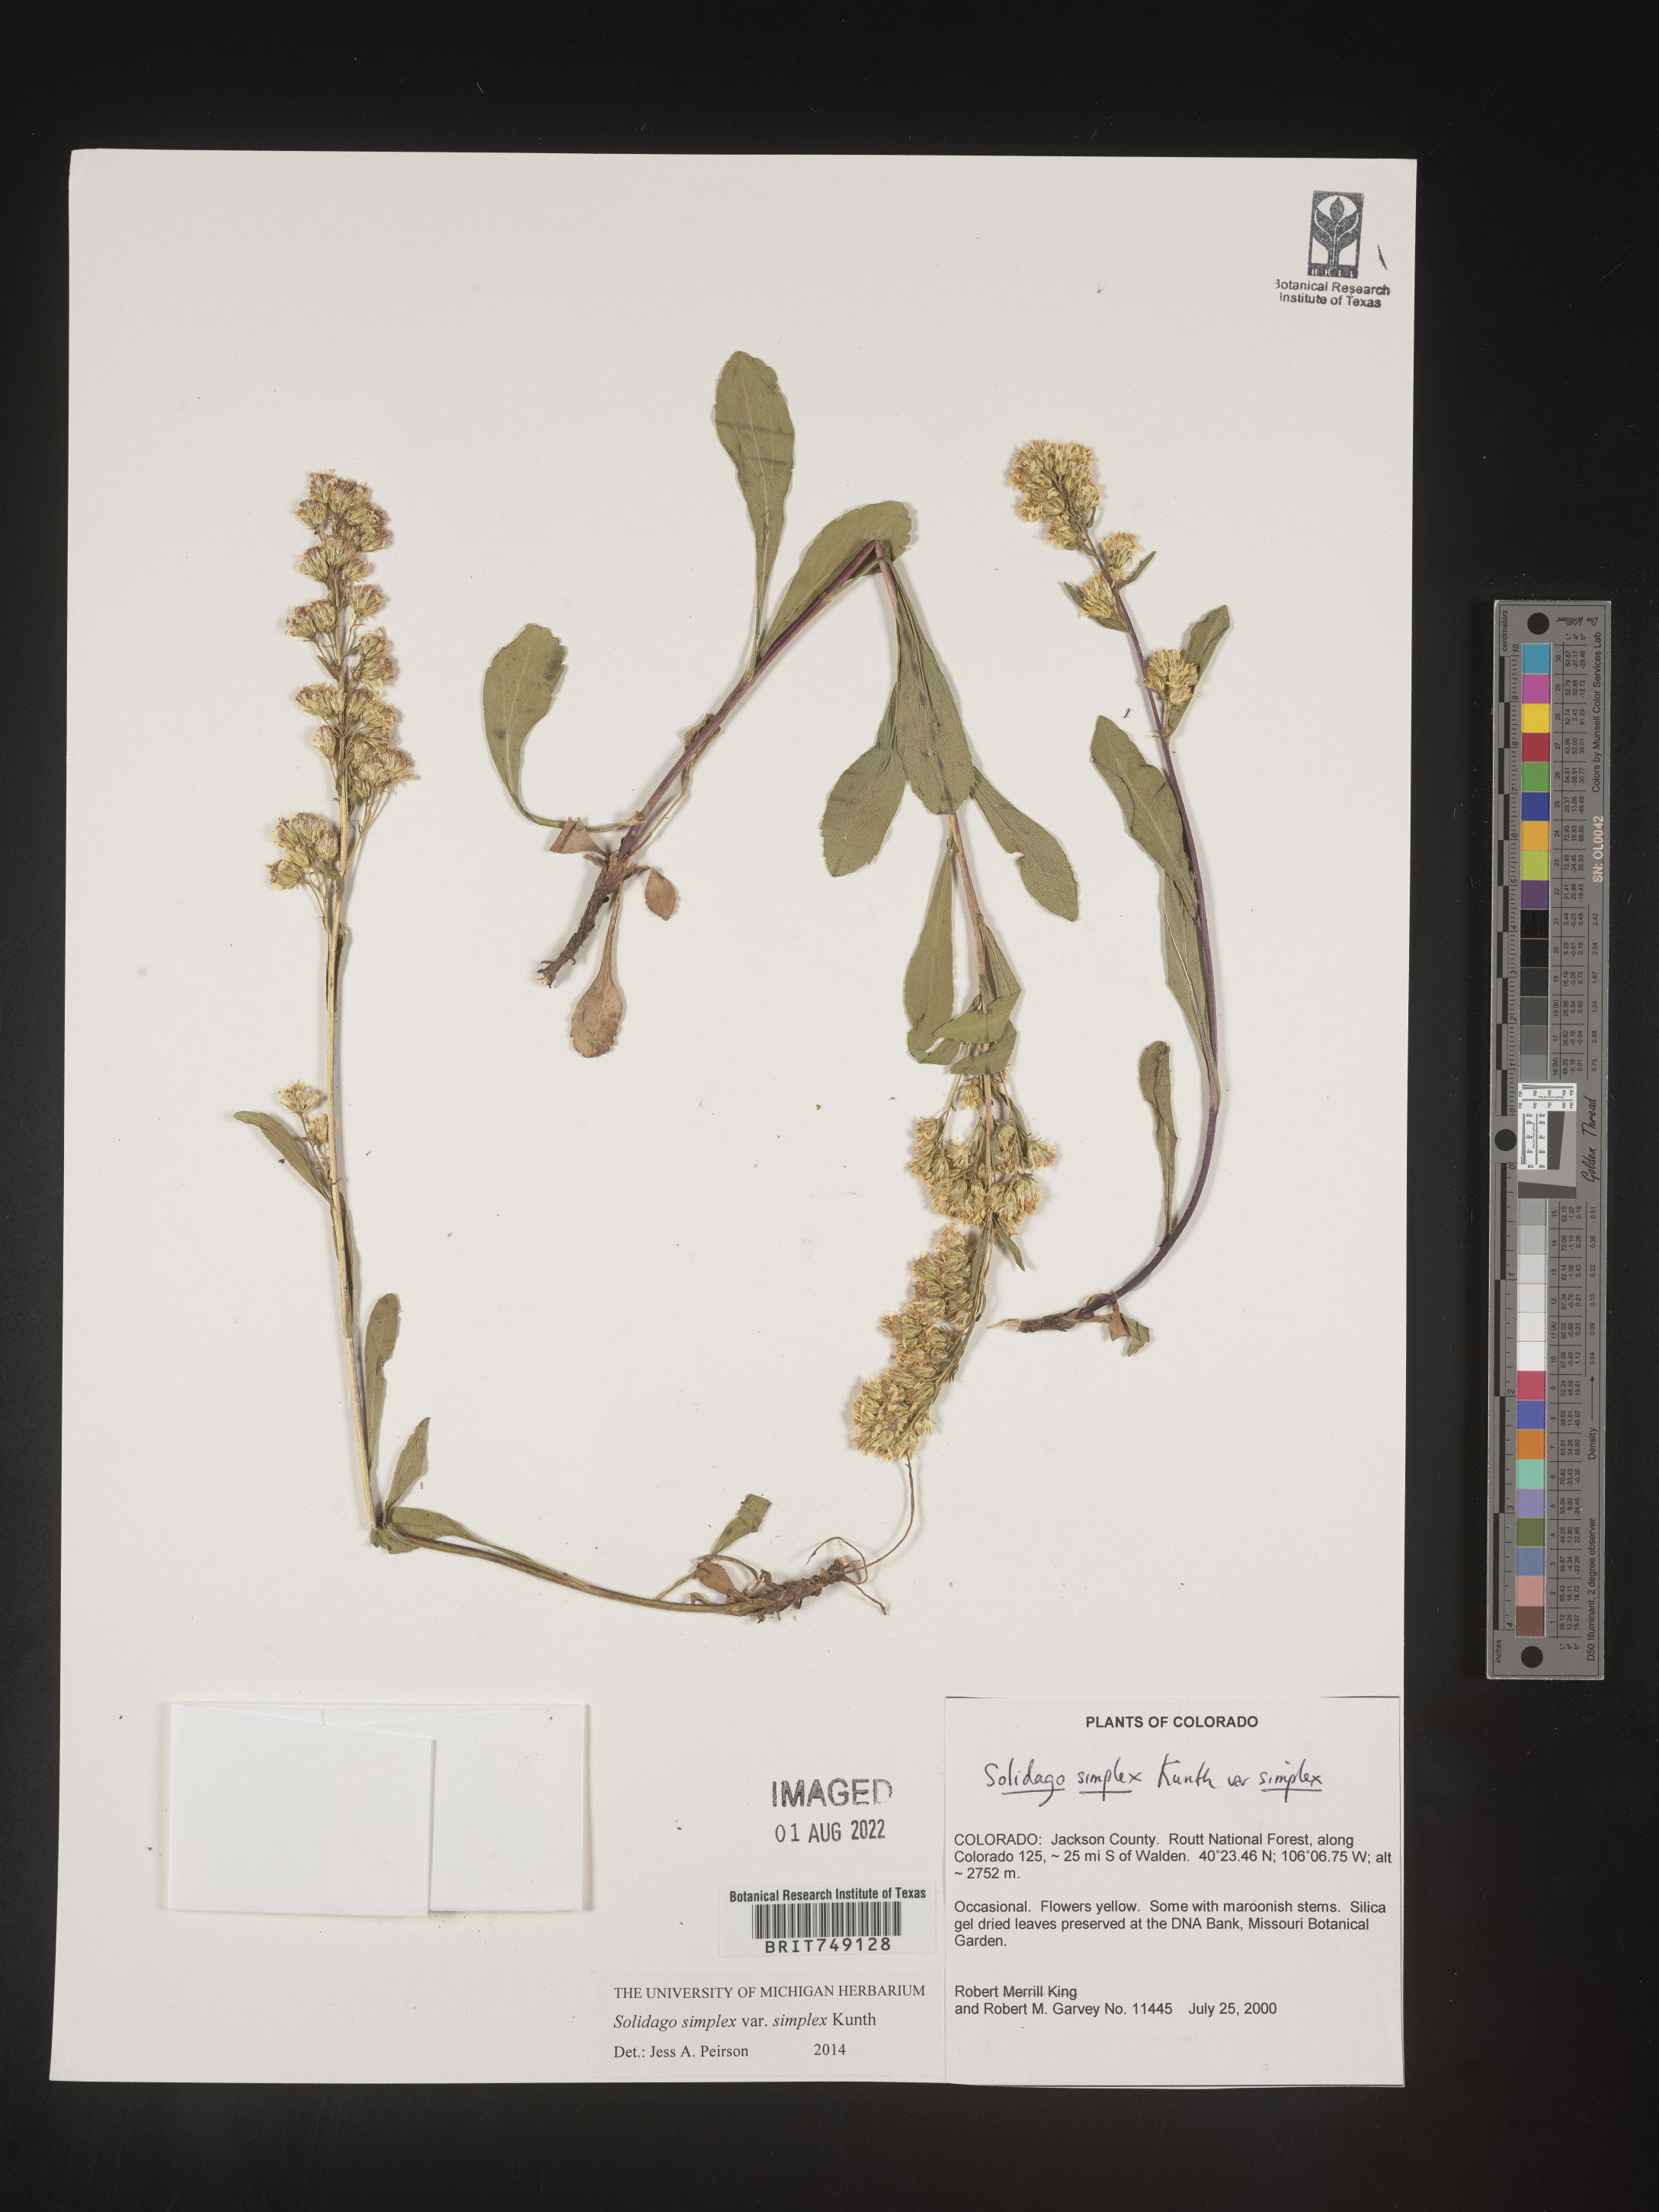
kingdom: Plantae
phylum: Tracheophyta
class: Magnoliopsida
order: Asterales
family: Asteraceae
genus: Solidago
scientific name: Solidago simplex
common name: Sticky goldenrod
